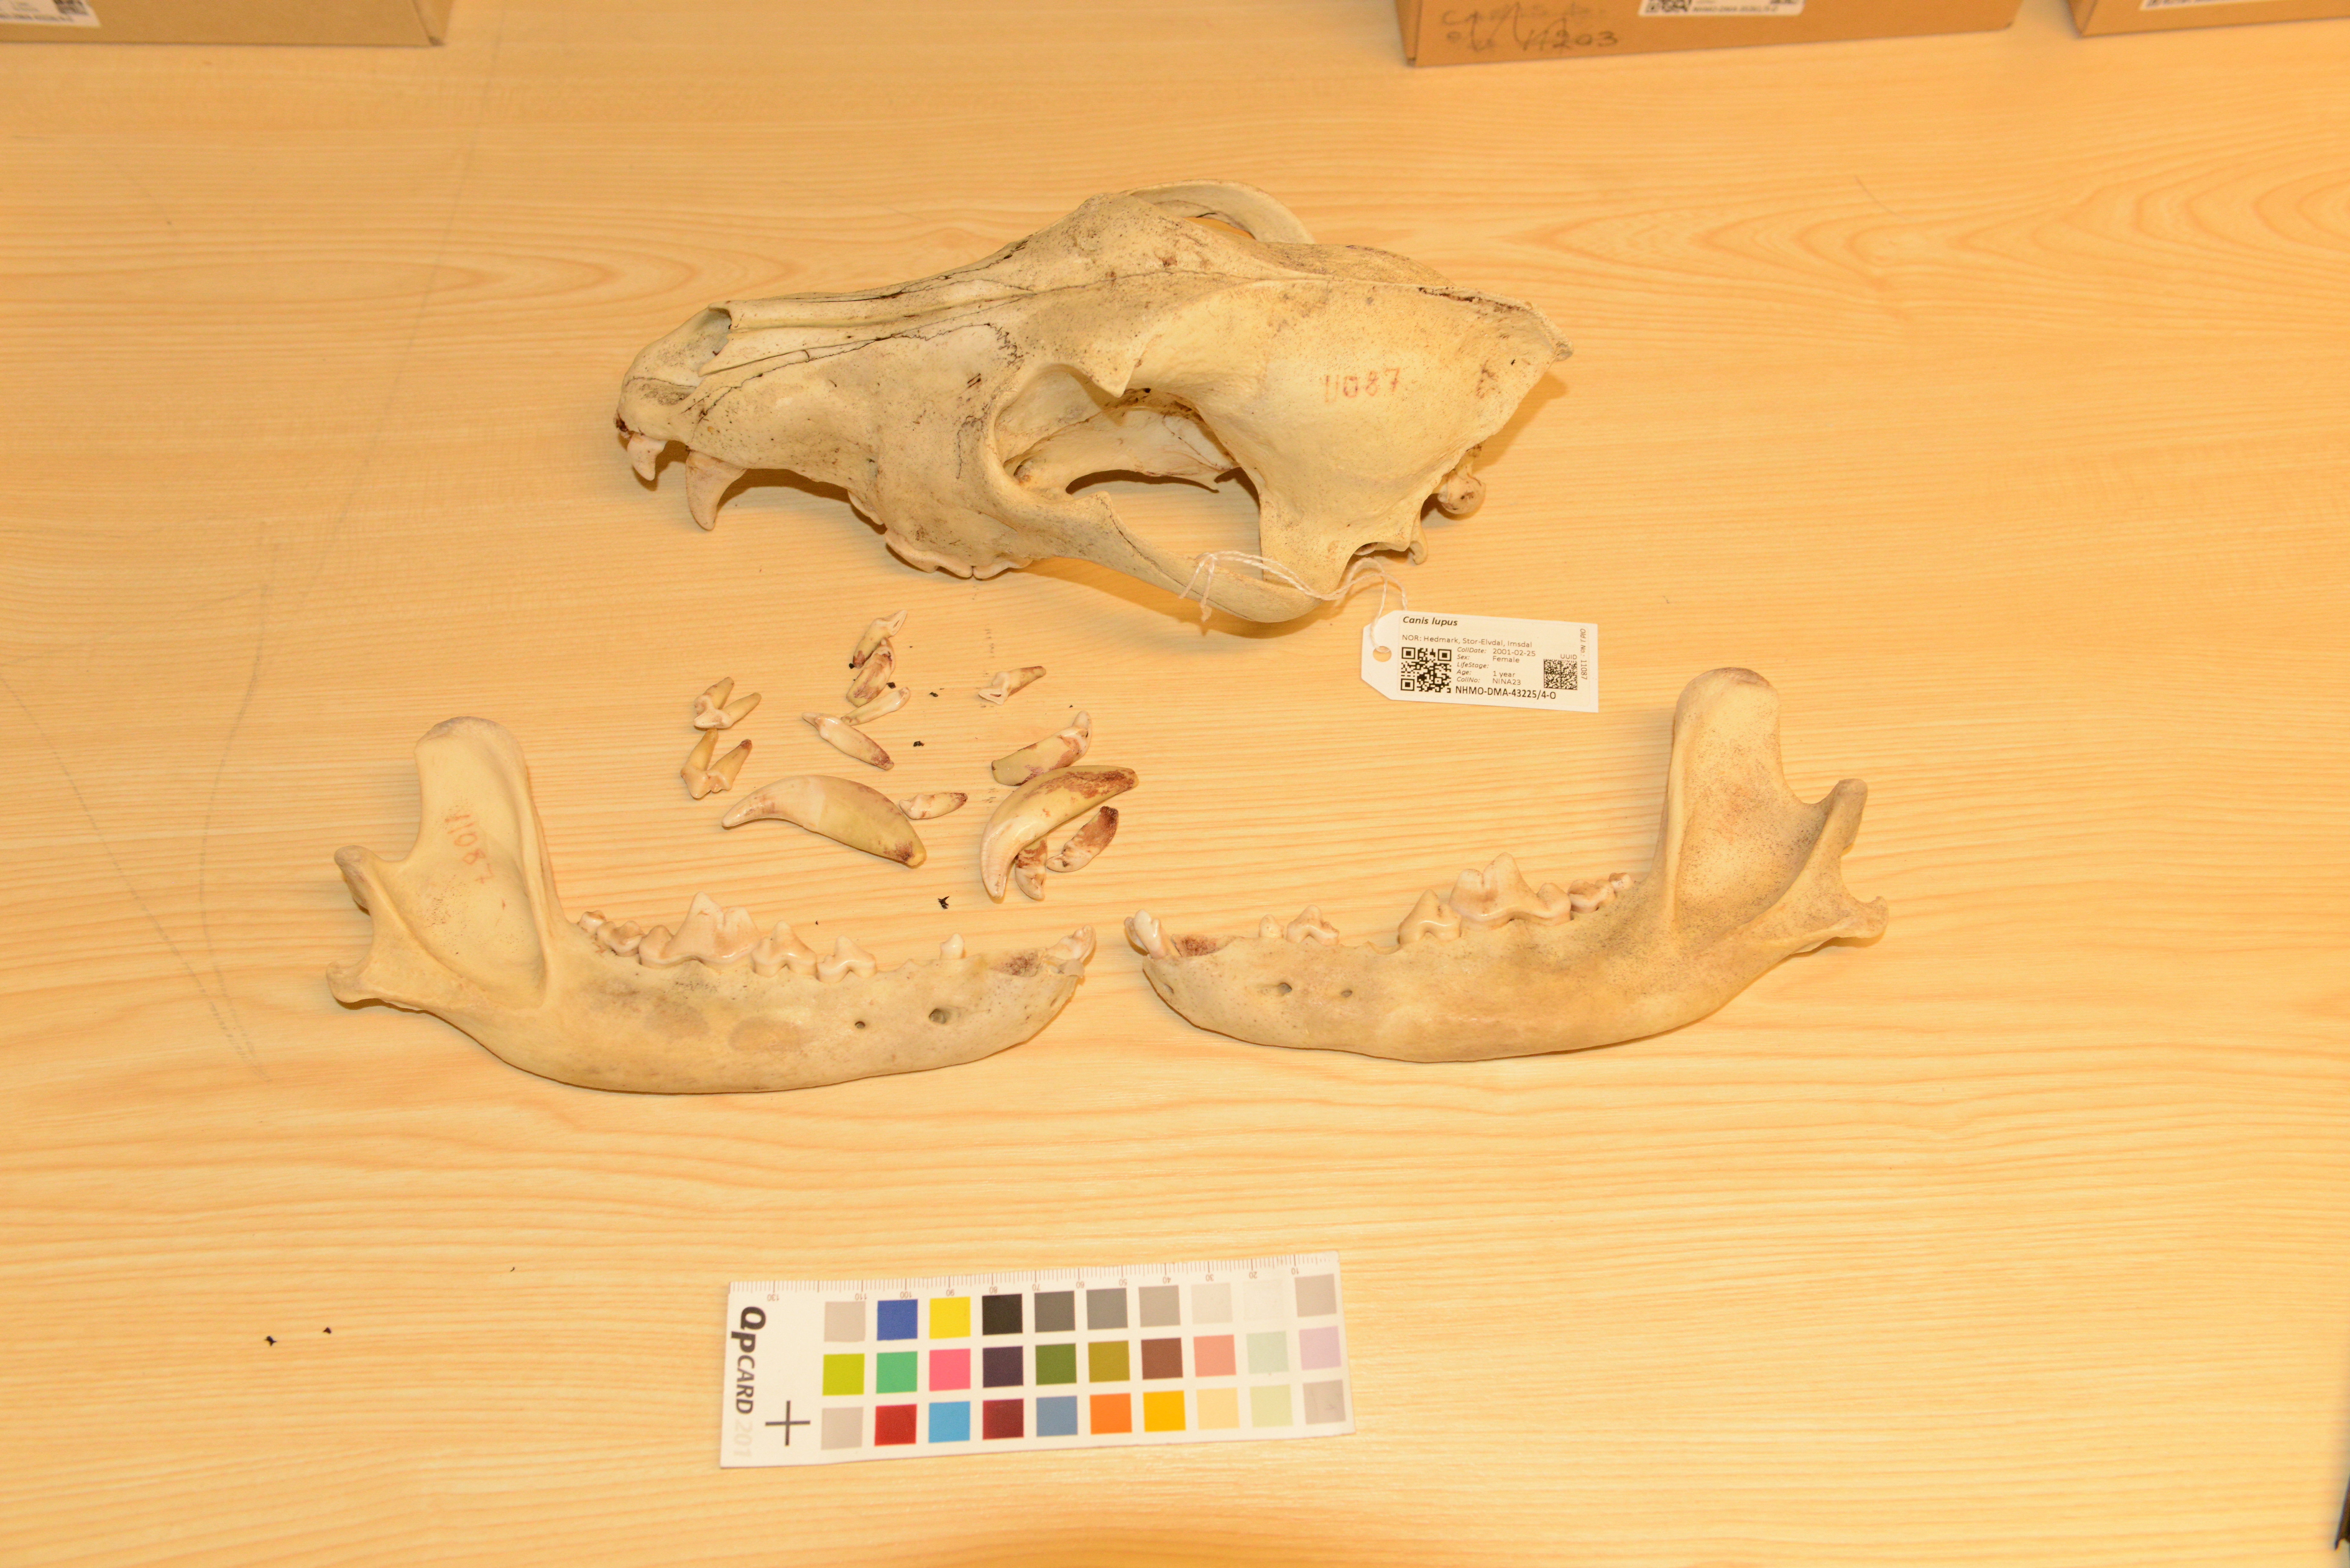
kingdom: Animalia
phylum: Chordata
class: Mammalia
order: Carnivora
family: Canidae
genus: Canis
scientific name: Canis lupus
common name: Gray wolf
